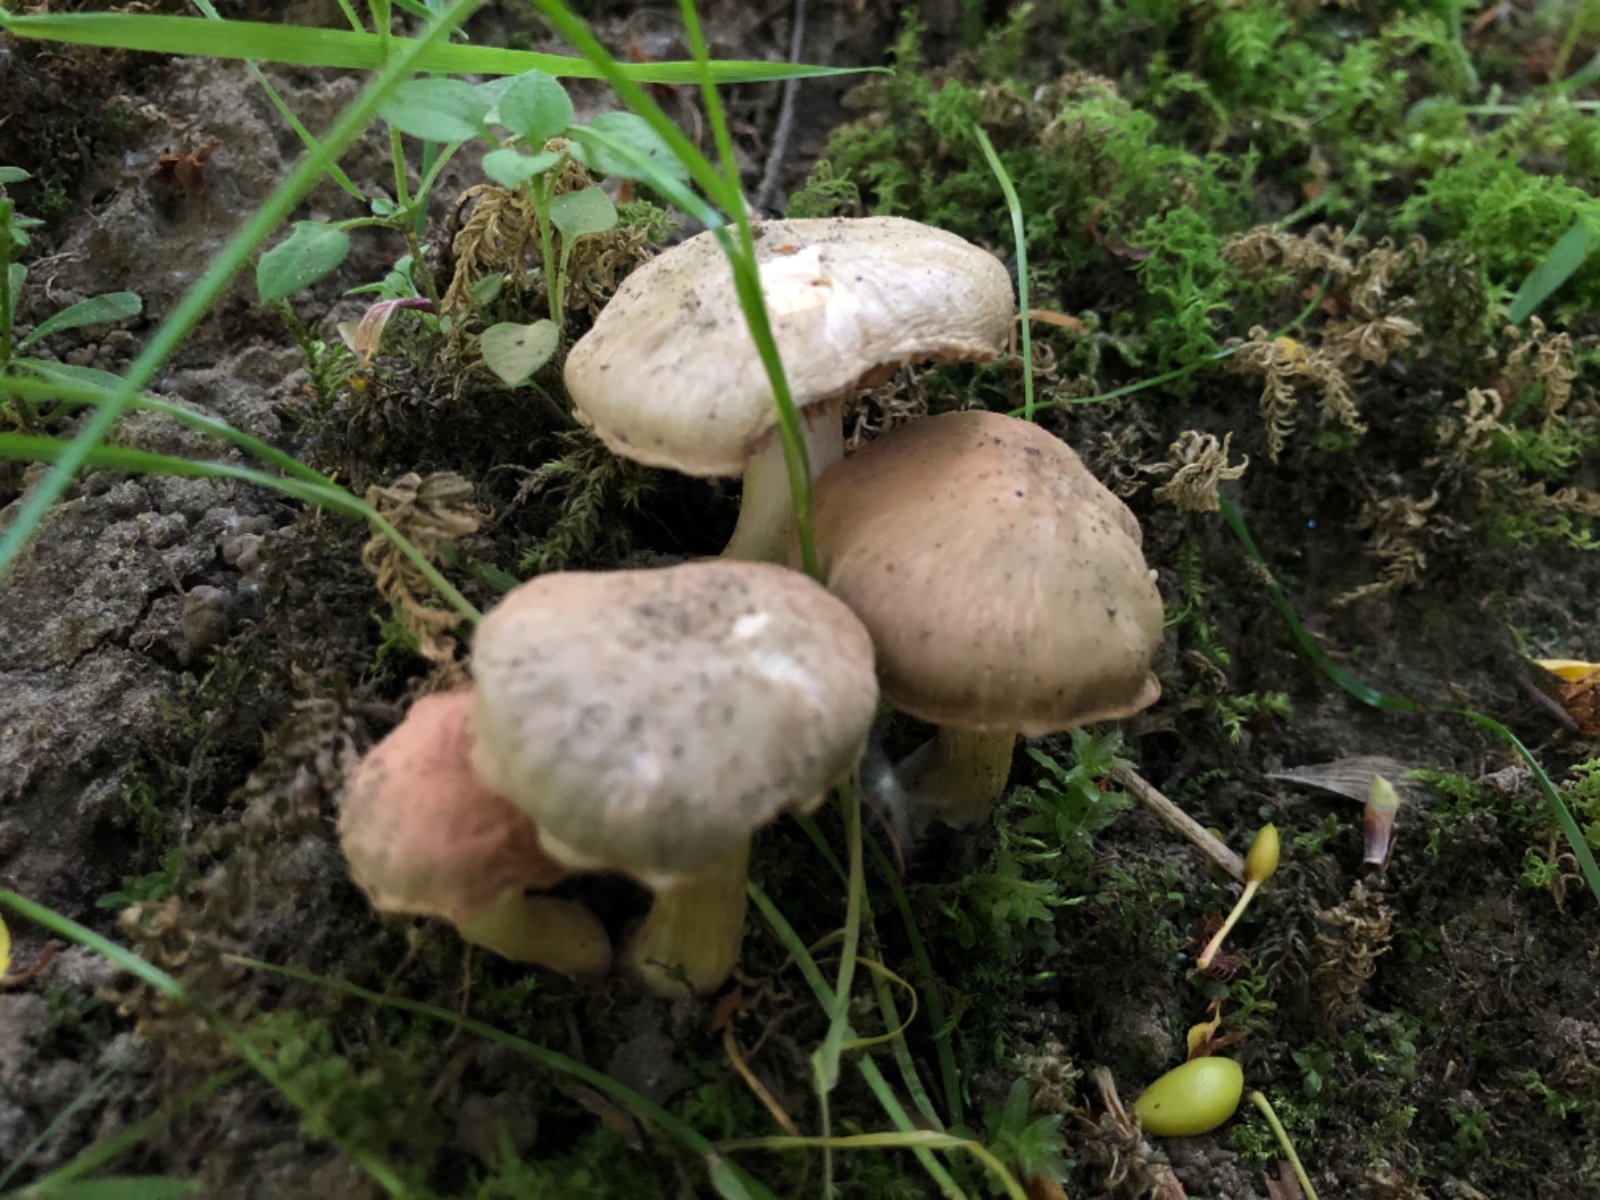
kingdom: Fungi
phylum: Basidiomycota
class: Agaricomycetes
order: Agaricales
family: Entolomataceae
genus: Entoloma
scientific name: Entoloma
